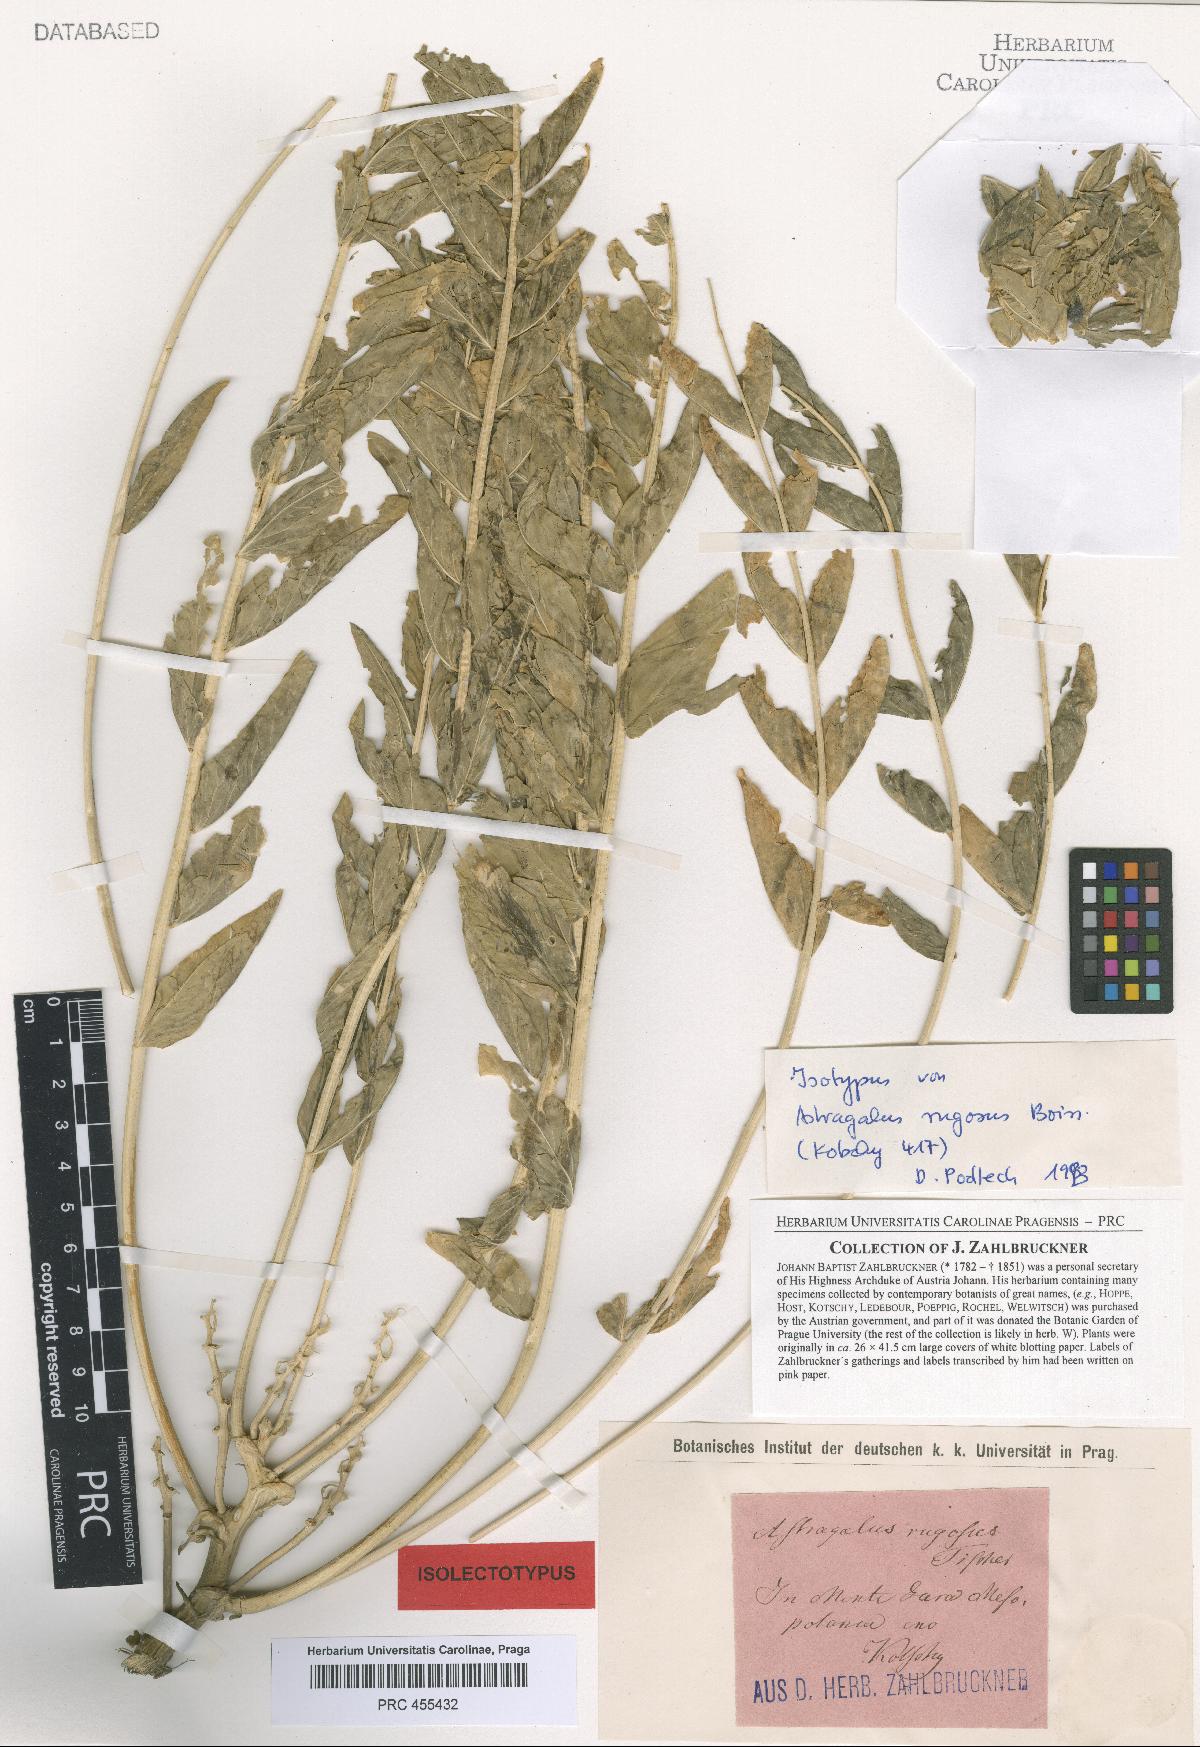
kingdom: Plantae
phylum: Tracheophyta
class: Magnoliopsida
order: Fabales
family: Fabaceae
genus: Astragalus
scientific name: Astragalus ovinus
